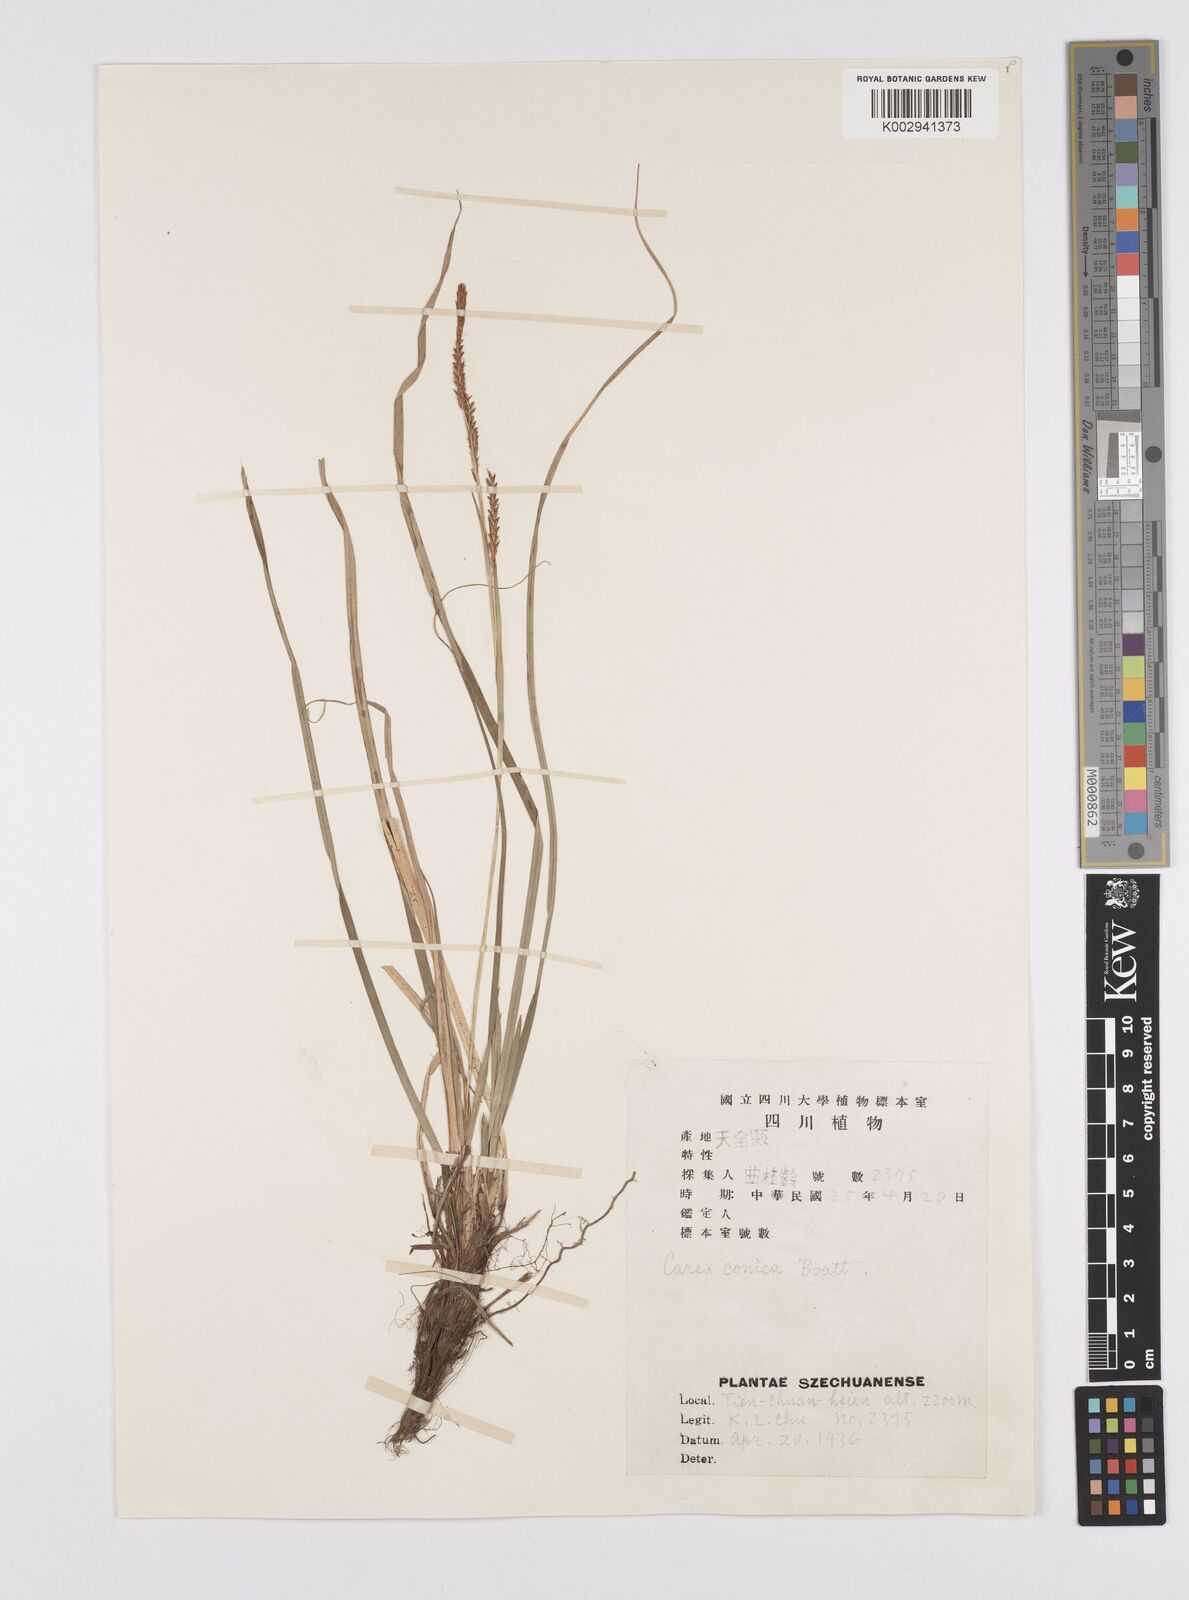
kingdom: Plantae
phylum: Tracheophyta
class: Liliopsida
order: Poales
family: Cyperaceae
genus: Carex
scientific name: Carex conica
